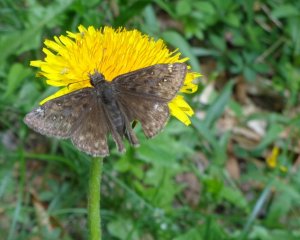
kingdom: Animalia
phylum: Arthropoda
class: Insecta
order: Lepidoptera
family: Hesperiidae
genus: Gesta
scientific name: Gesta
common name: Juvenal's Duskywing
